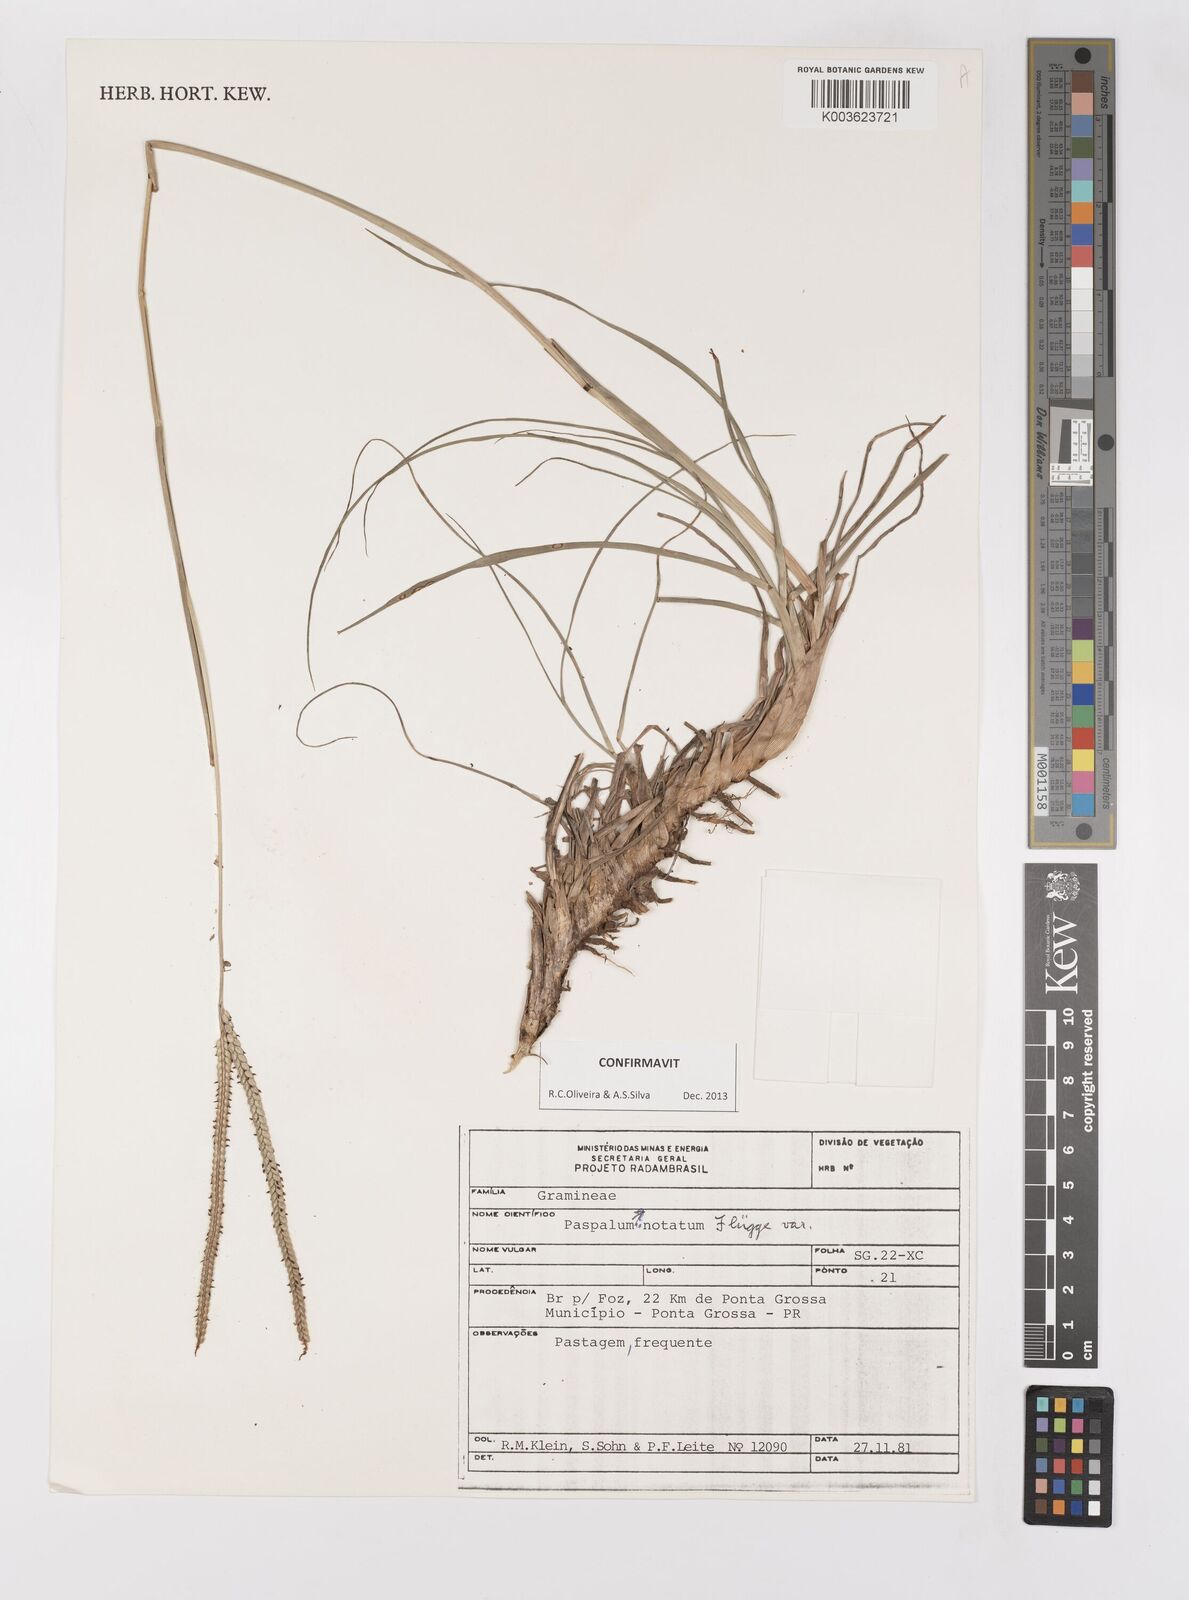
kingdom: Plantae
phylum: Tracheophyta
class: Liliopsida
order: Poales
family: Poaceae
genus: Paspalum
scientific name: Paspalum notatum
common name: Bahiagrass
